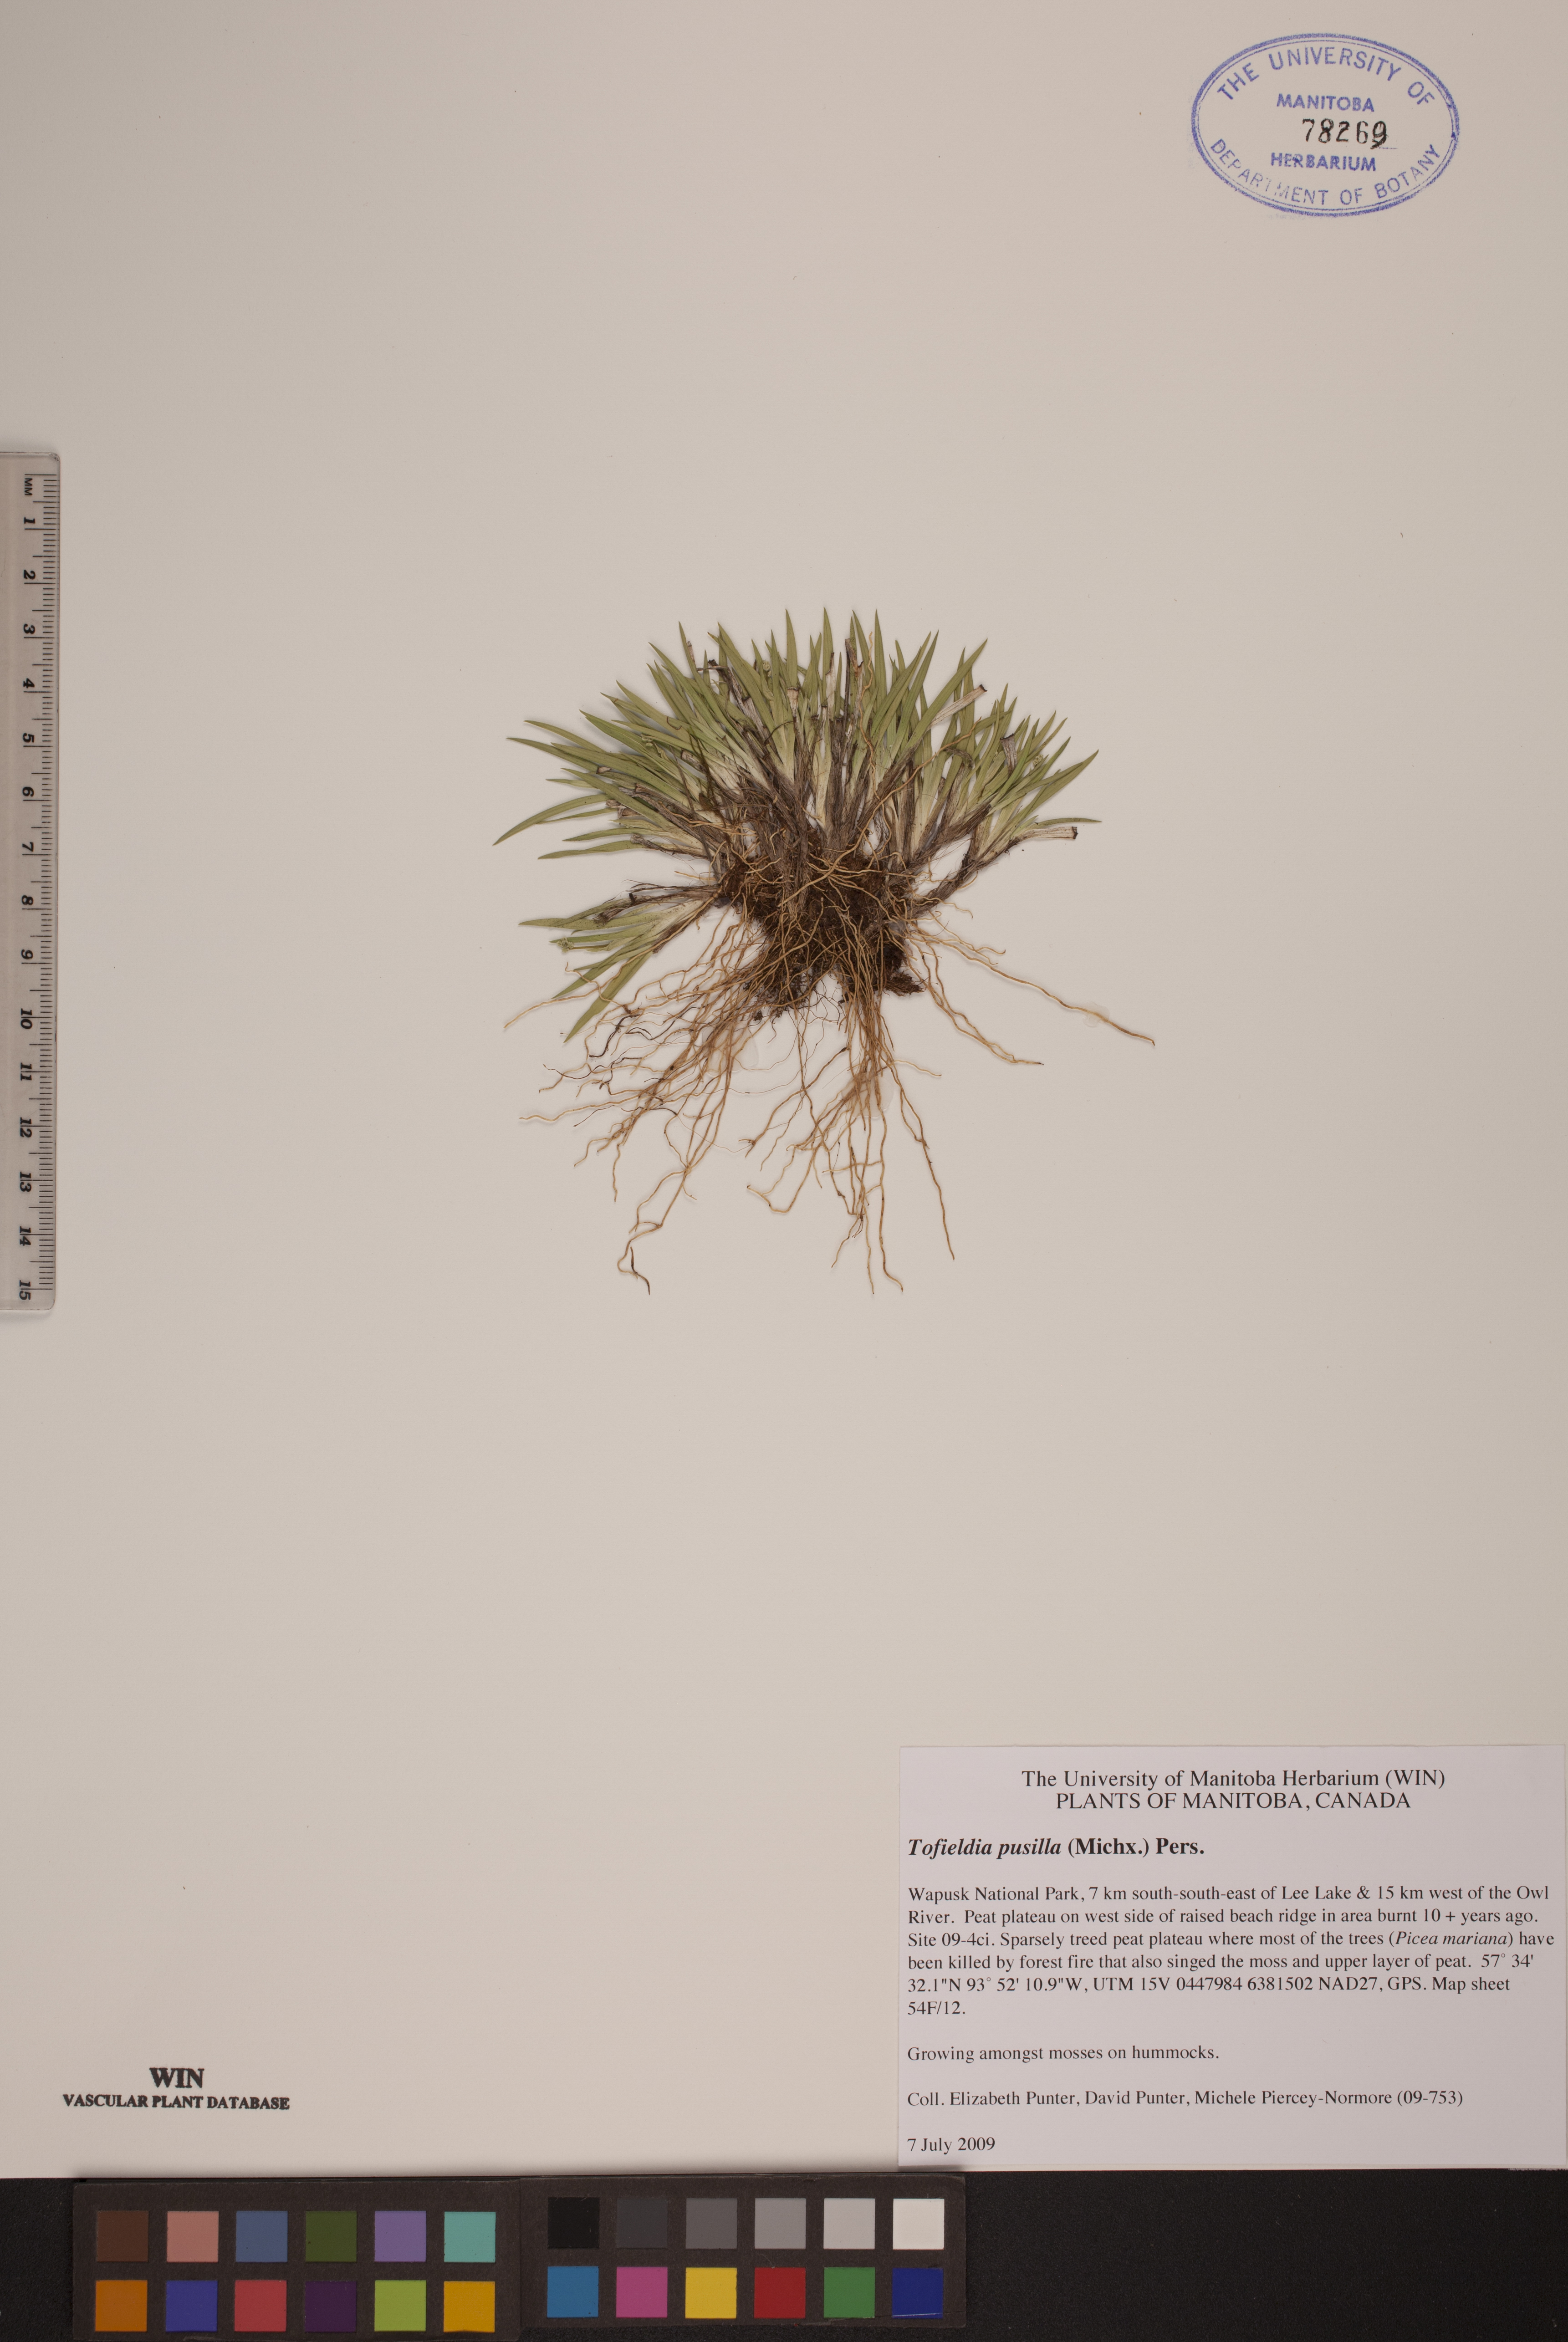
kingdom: Plantae
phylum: Tracheophyta
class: Liliopsida
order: Alismatales
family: Tofieldiaceae
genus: Tofieldia
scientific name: Tofieldia pusilla
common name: Scottish false asphodel
